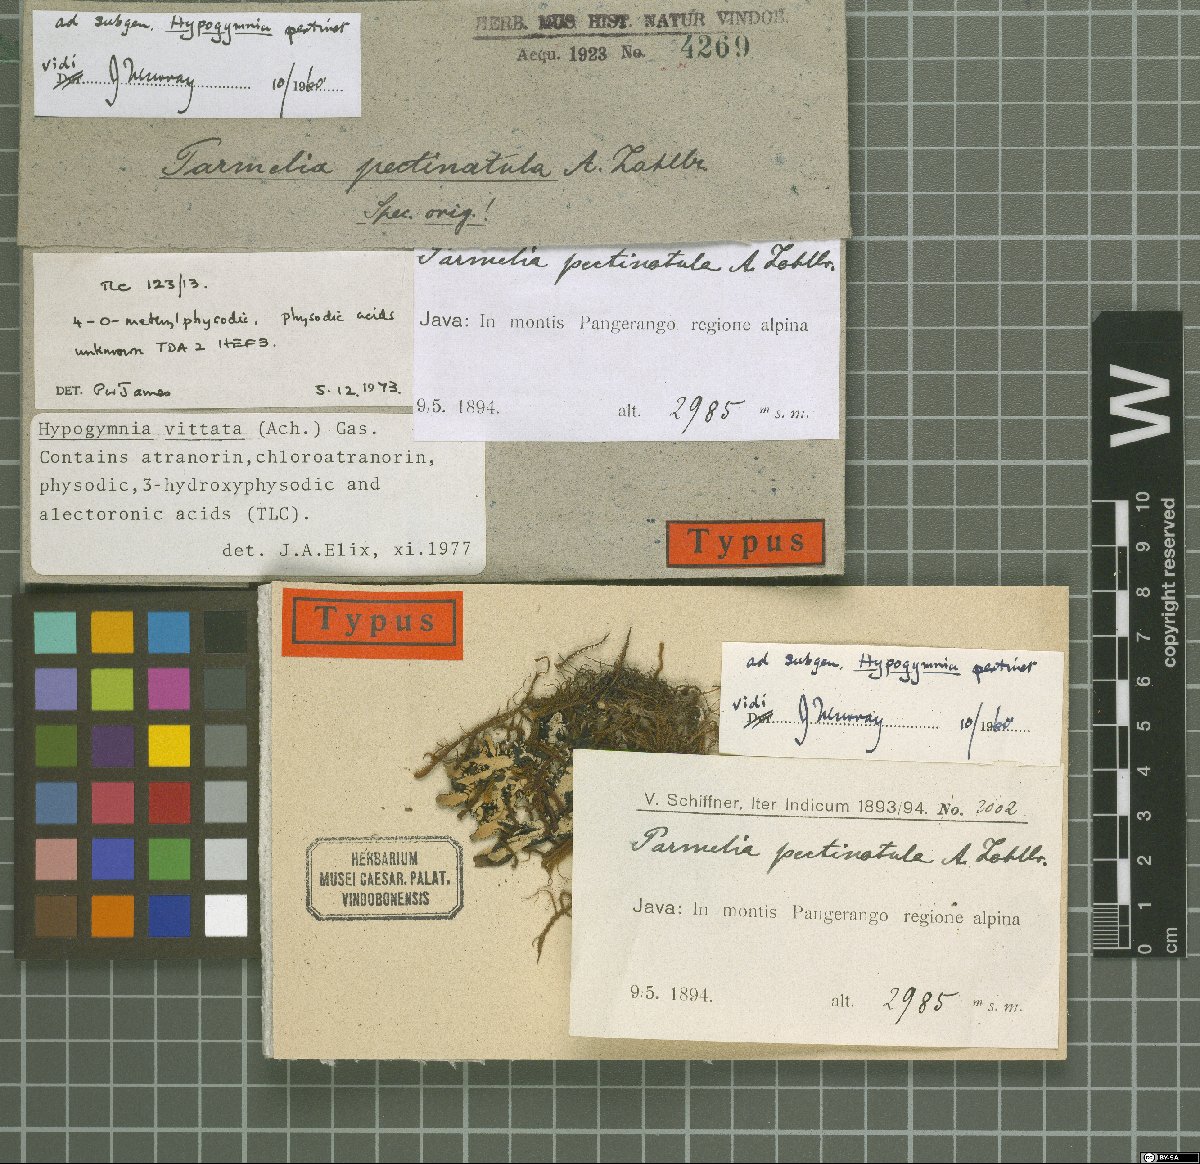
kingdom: Fungi
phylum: Ascomycota
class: Lecanoromycetes
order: Lecanorales
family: Parmeliaceae
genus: Parmelia
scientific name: Parmelia
